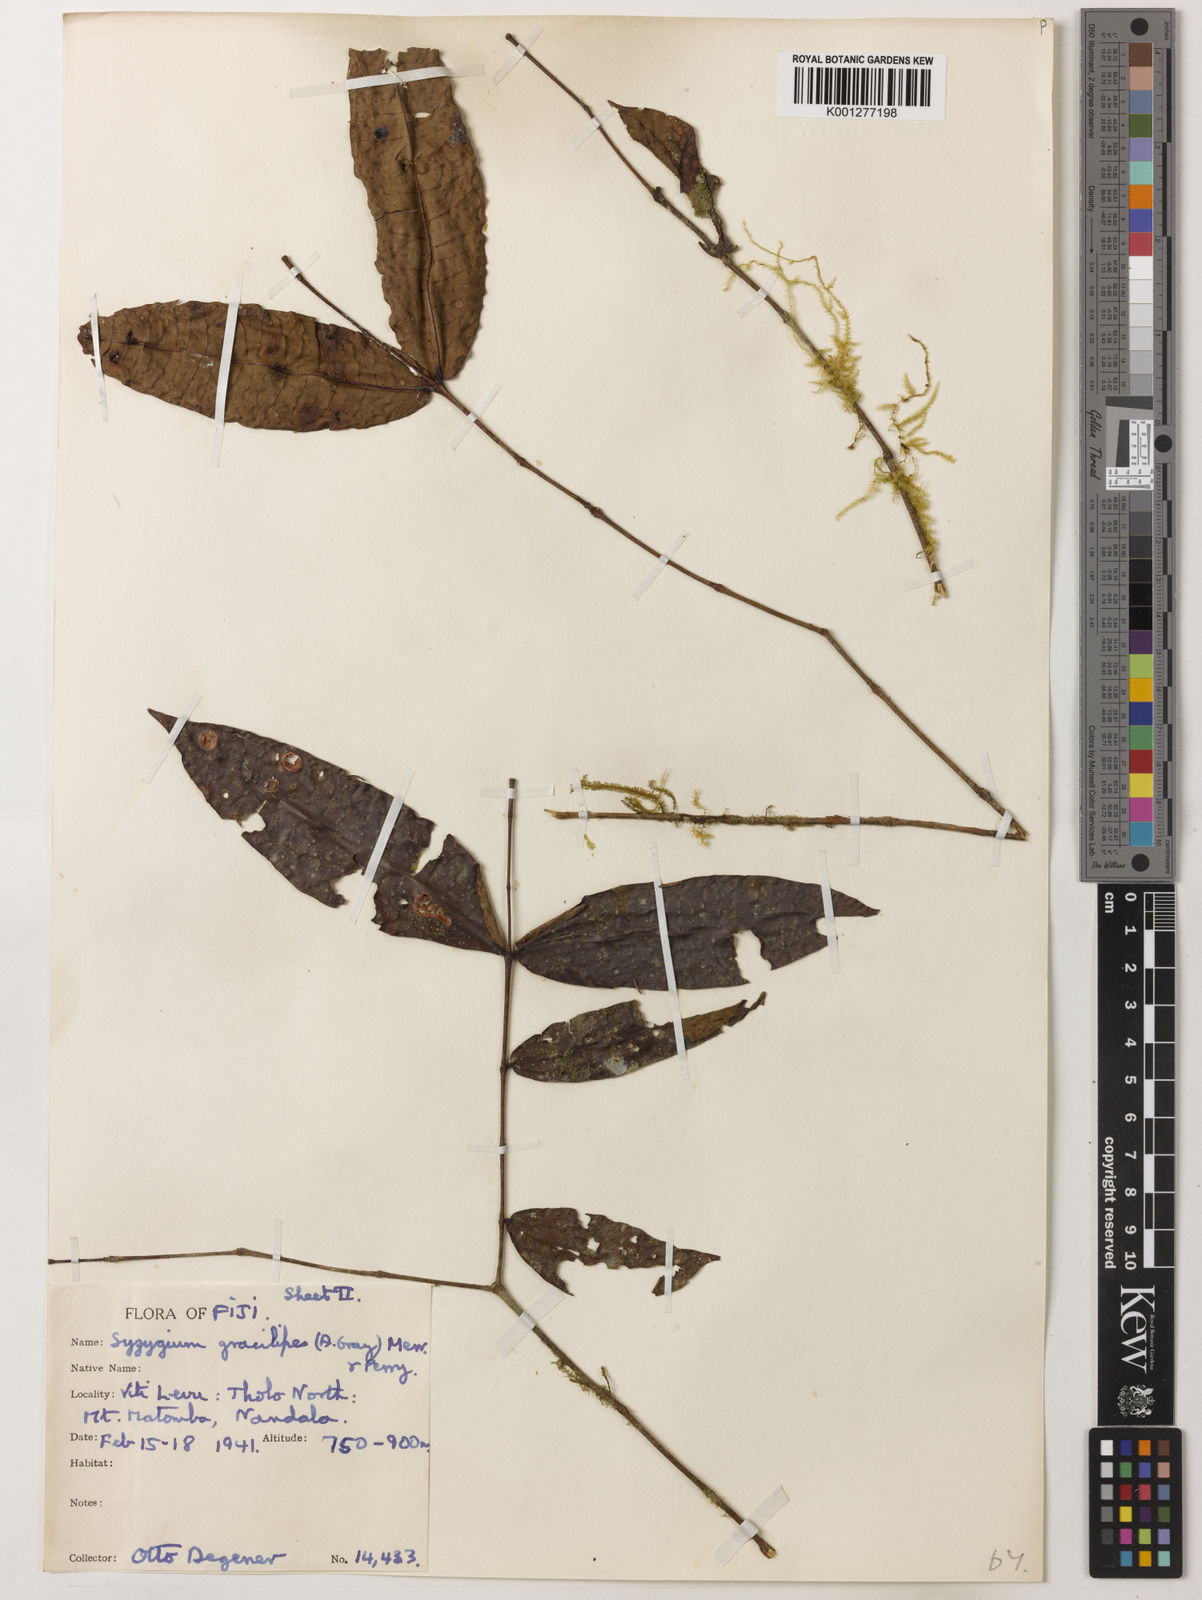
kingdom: Plantae
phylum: Tracheophyta
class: Magnoliopsida
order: Myrtales
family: Myrtaceae
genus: Syzygium
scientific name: Syzygium gracilipes
